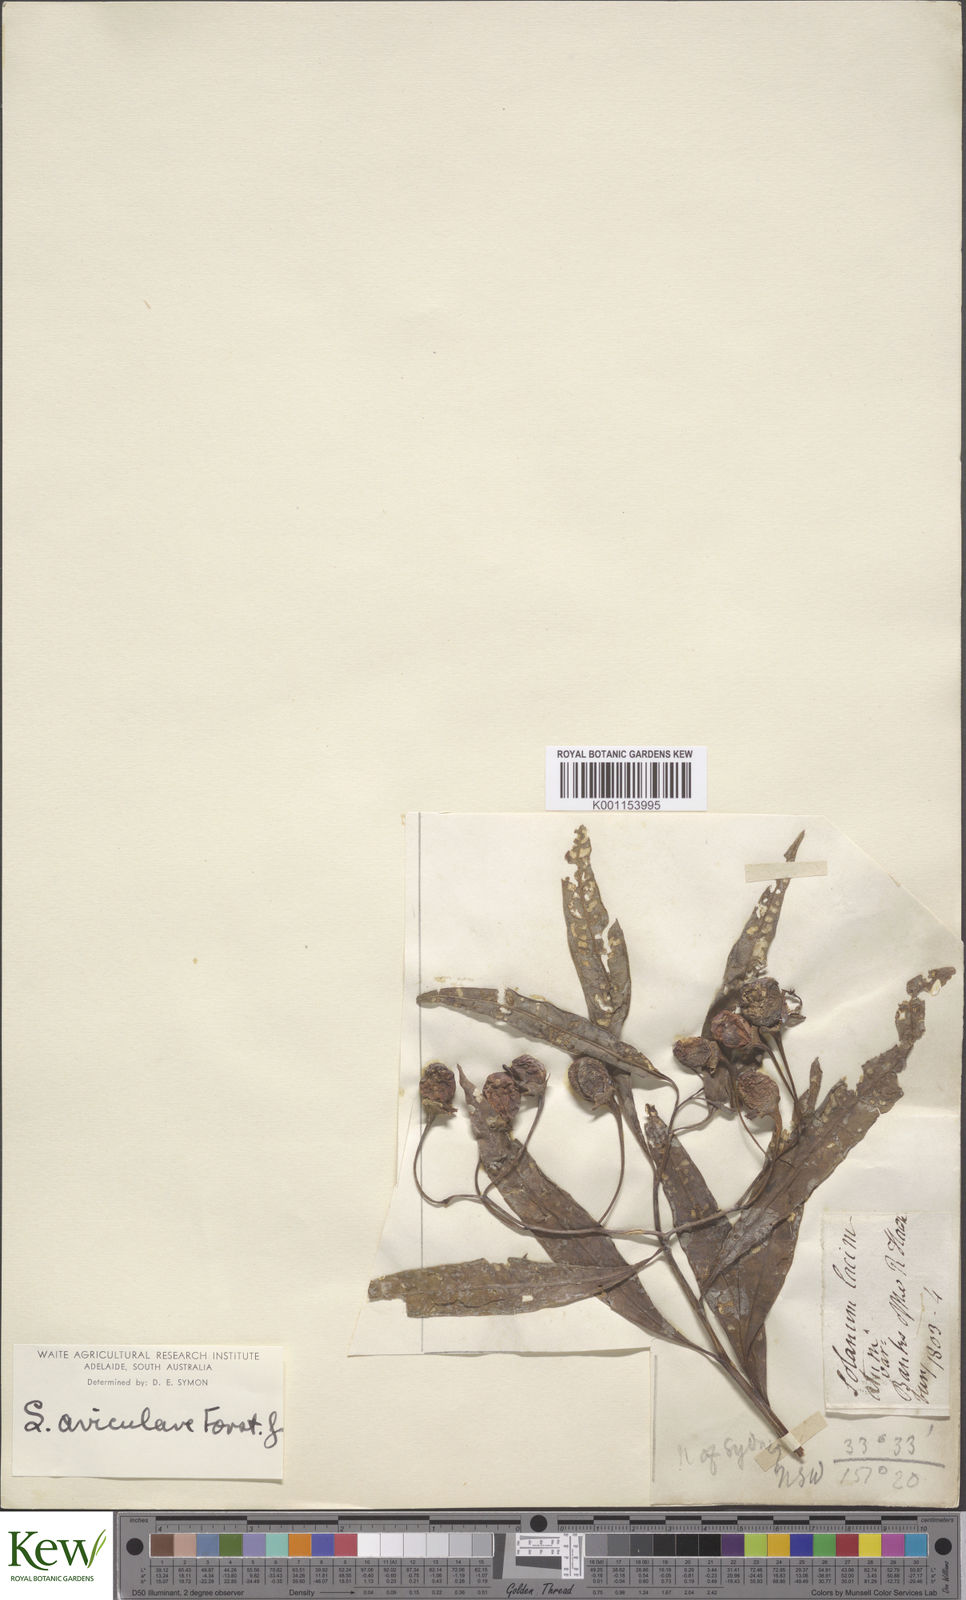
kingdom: Plantae
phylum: Tracheophyta
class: Magnoliopsida
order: Solanales
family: Solanaceae
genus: Solanum
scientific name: Solanum aviculare
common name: New zealand nightshade
